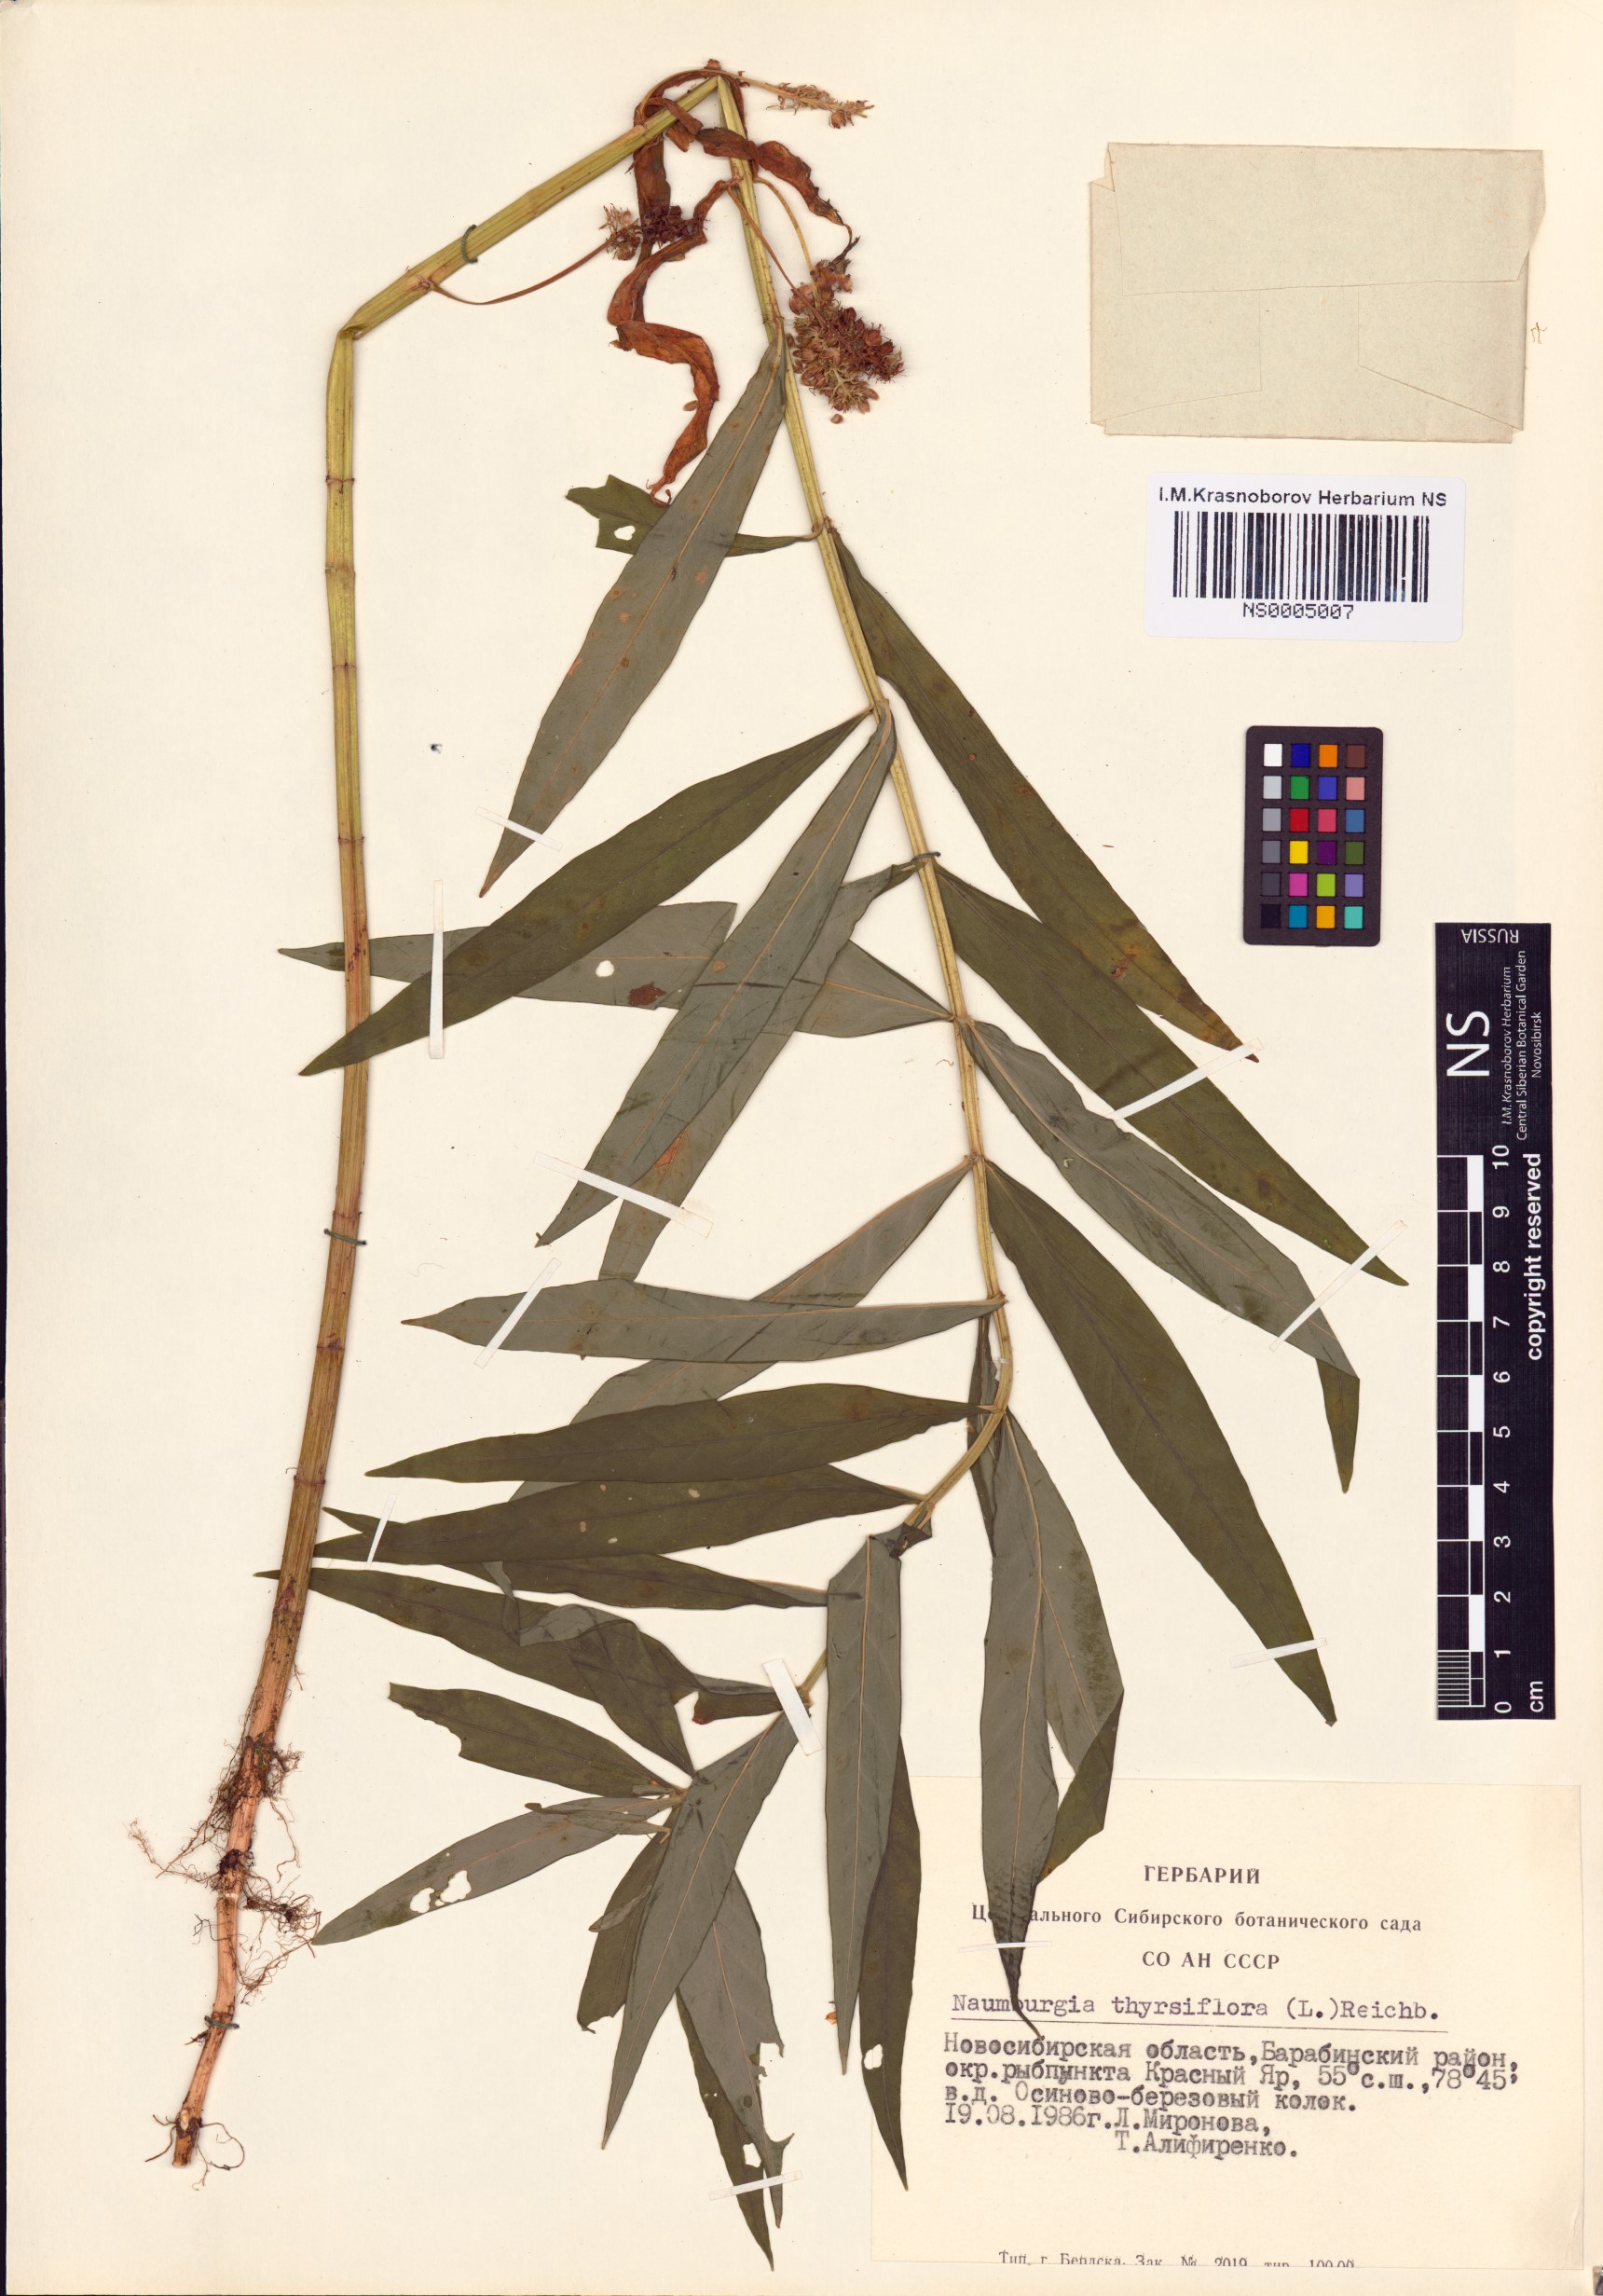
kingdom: Plantae
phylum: Tracheophyta
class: Magnoliopsida
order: Ericales
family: Primulaceae
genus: Lysimachia
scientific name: Lysimachia thyrsiflora
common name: Tufted loosestrife
